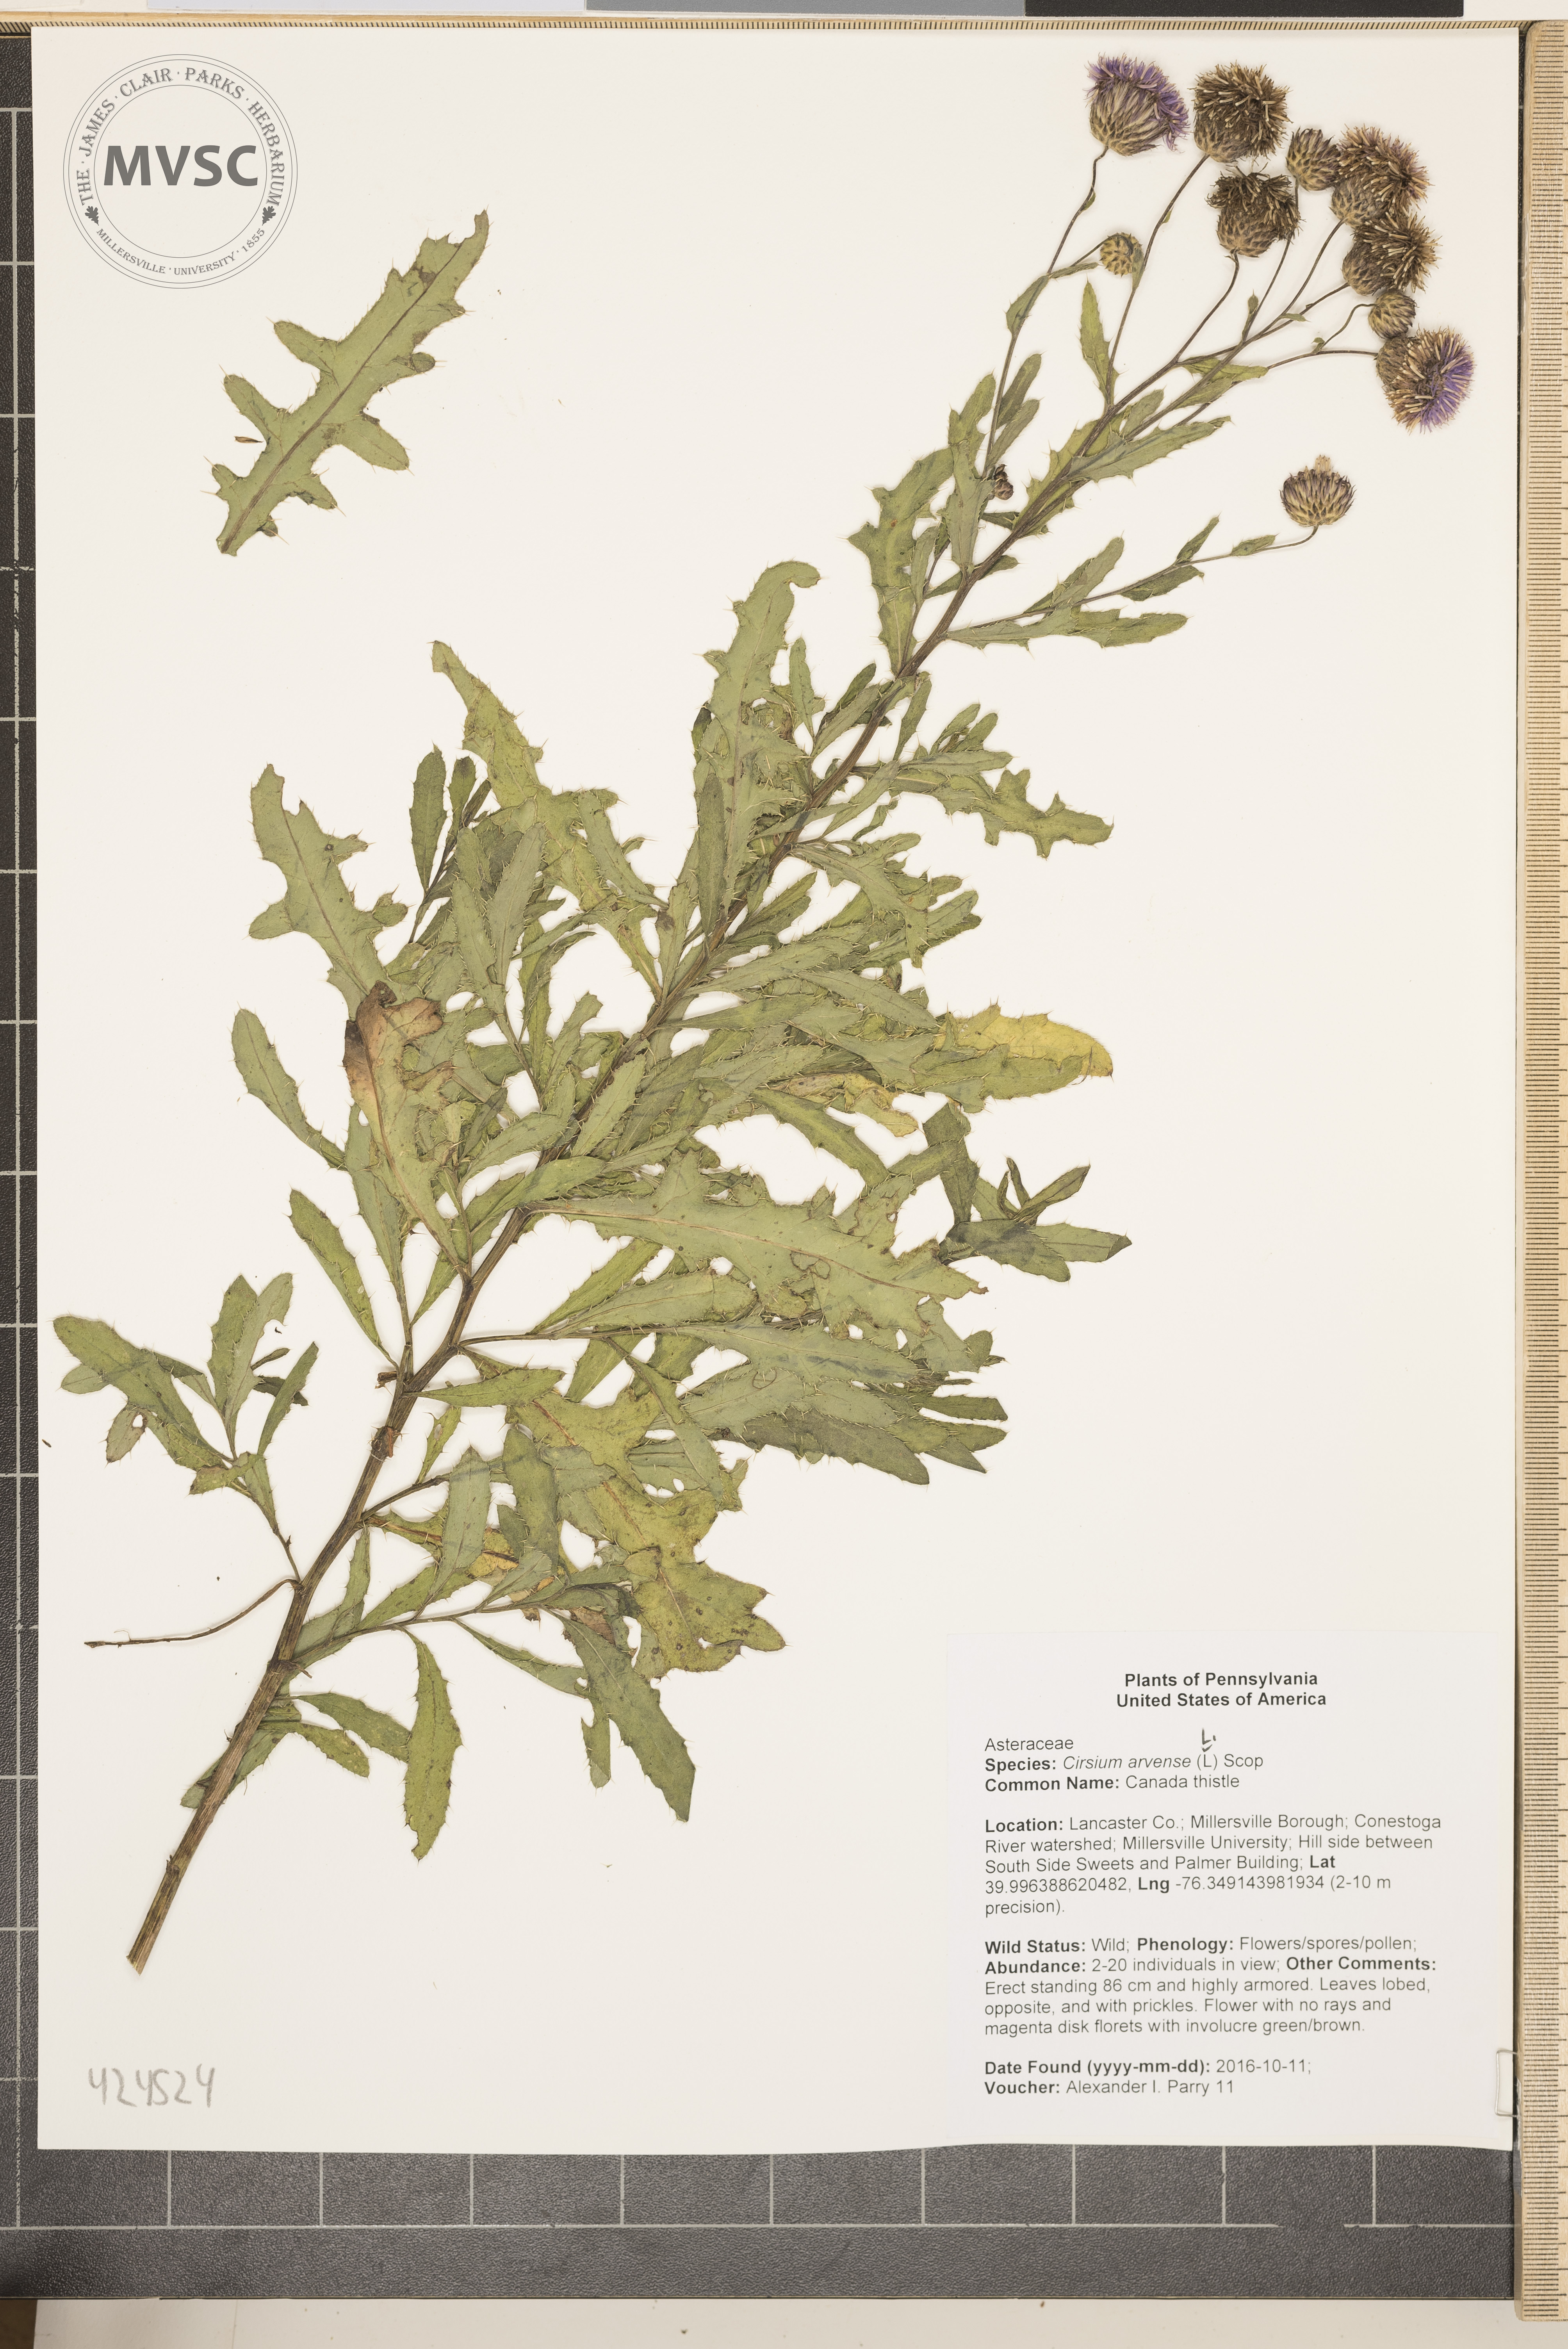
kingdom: Plantae
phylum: Tracheophyta
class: Magnoliopsida
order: Asterales
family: Asteraceae
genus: Cirsium
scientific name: Cirsium arvense
